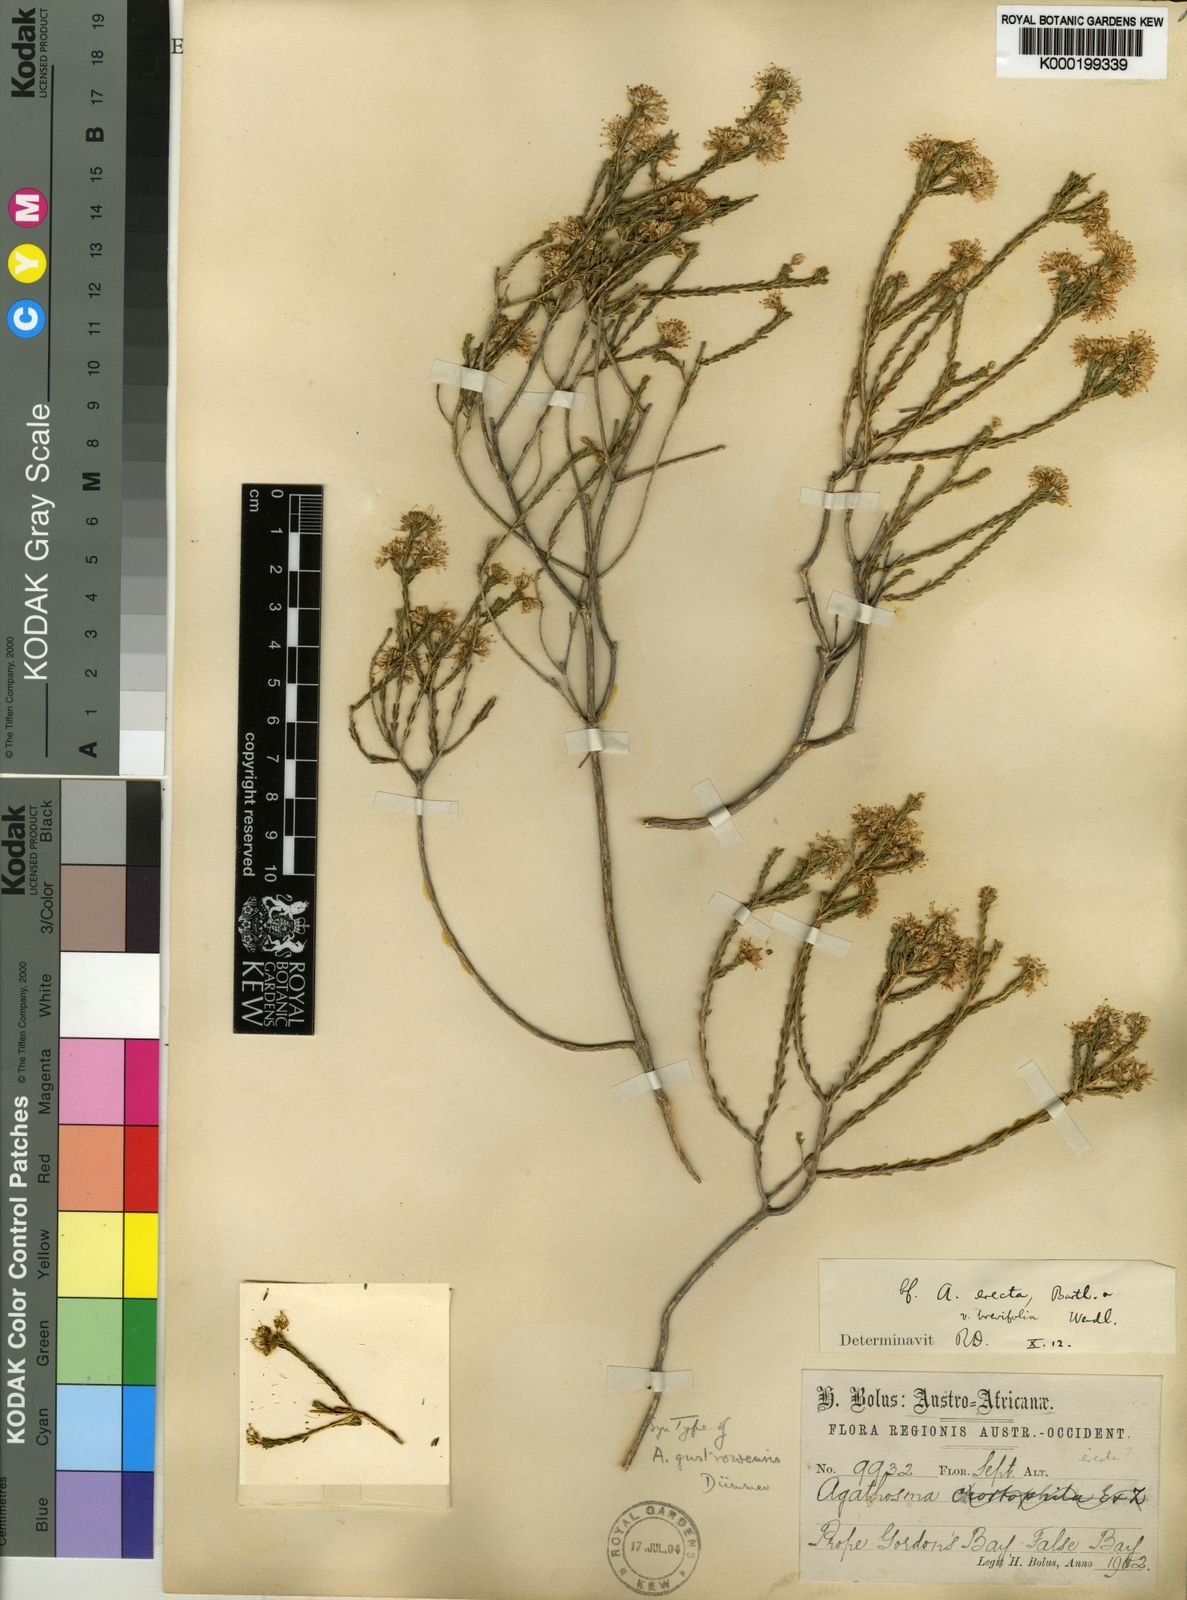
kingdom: Plantae
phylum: Tracheophyta
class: Magnoliopsida
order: Sapindales
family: Rutaceae
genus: Agathosma
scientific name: Agathosma capensis
